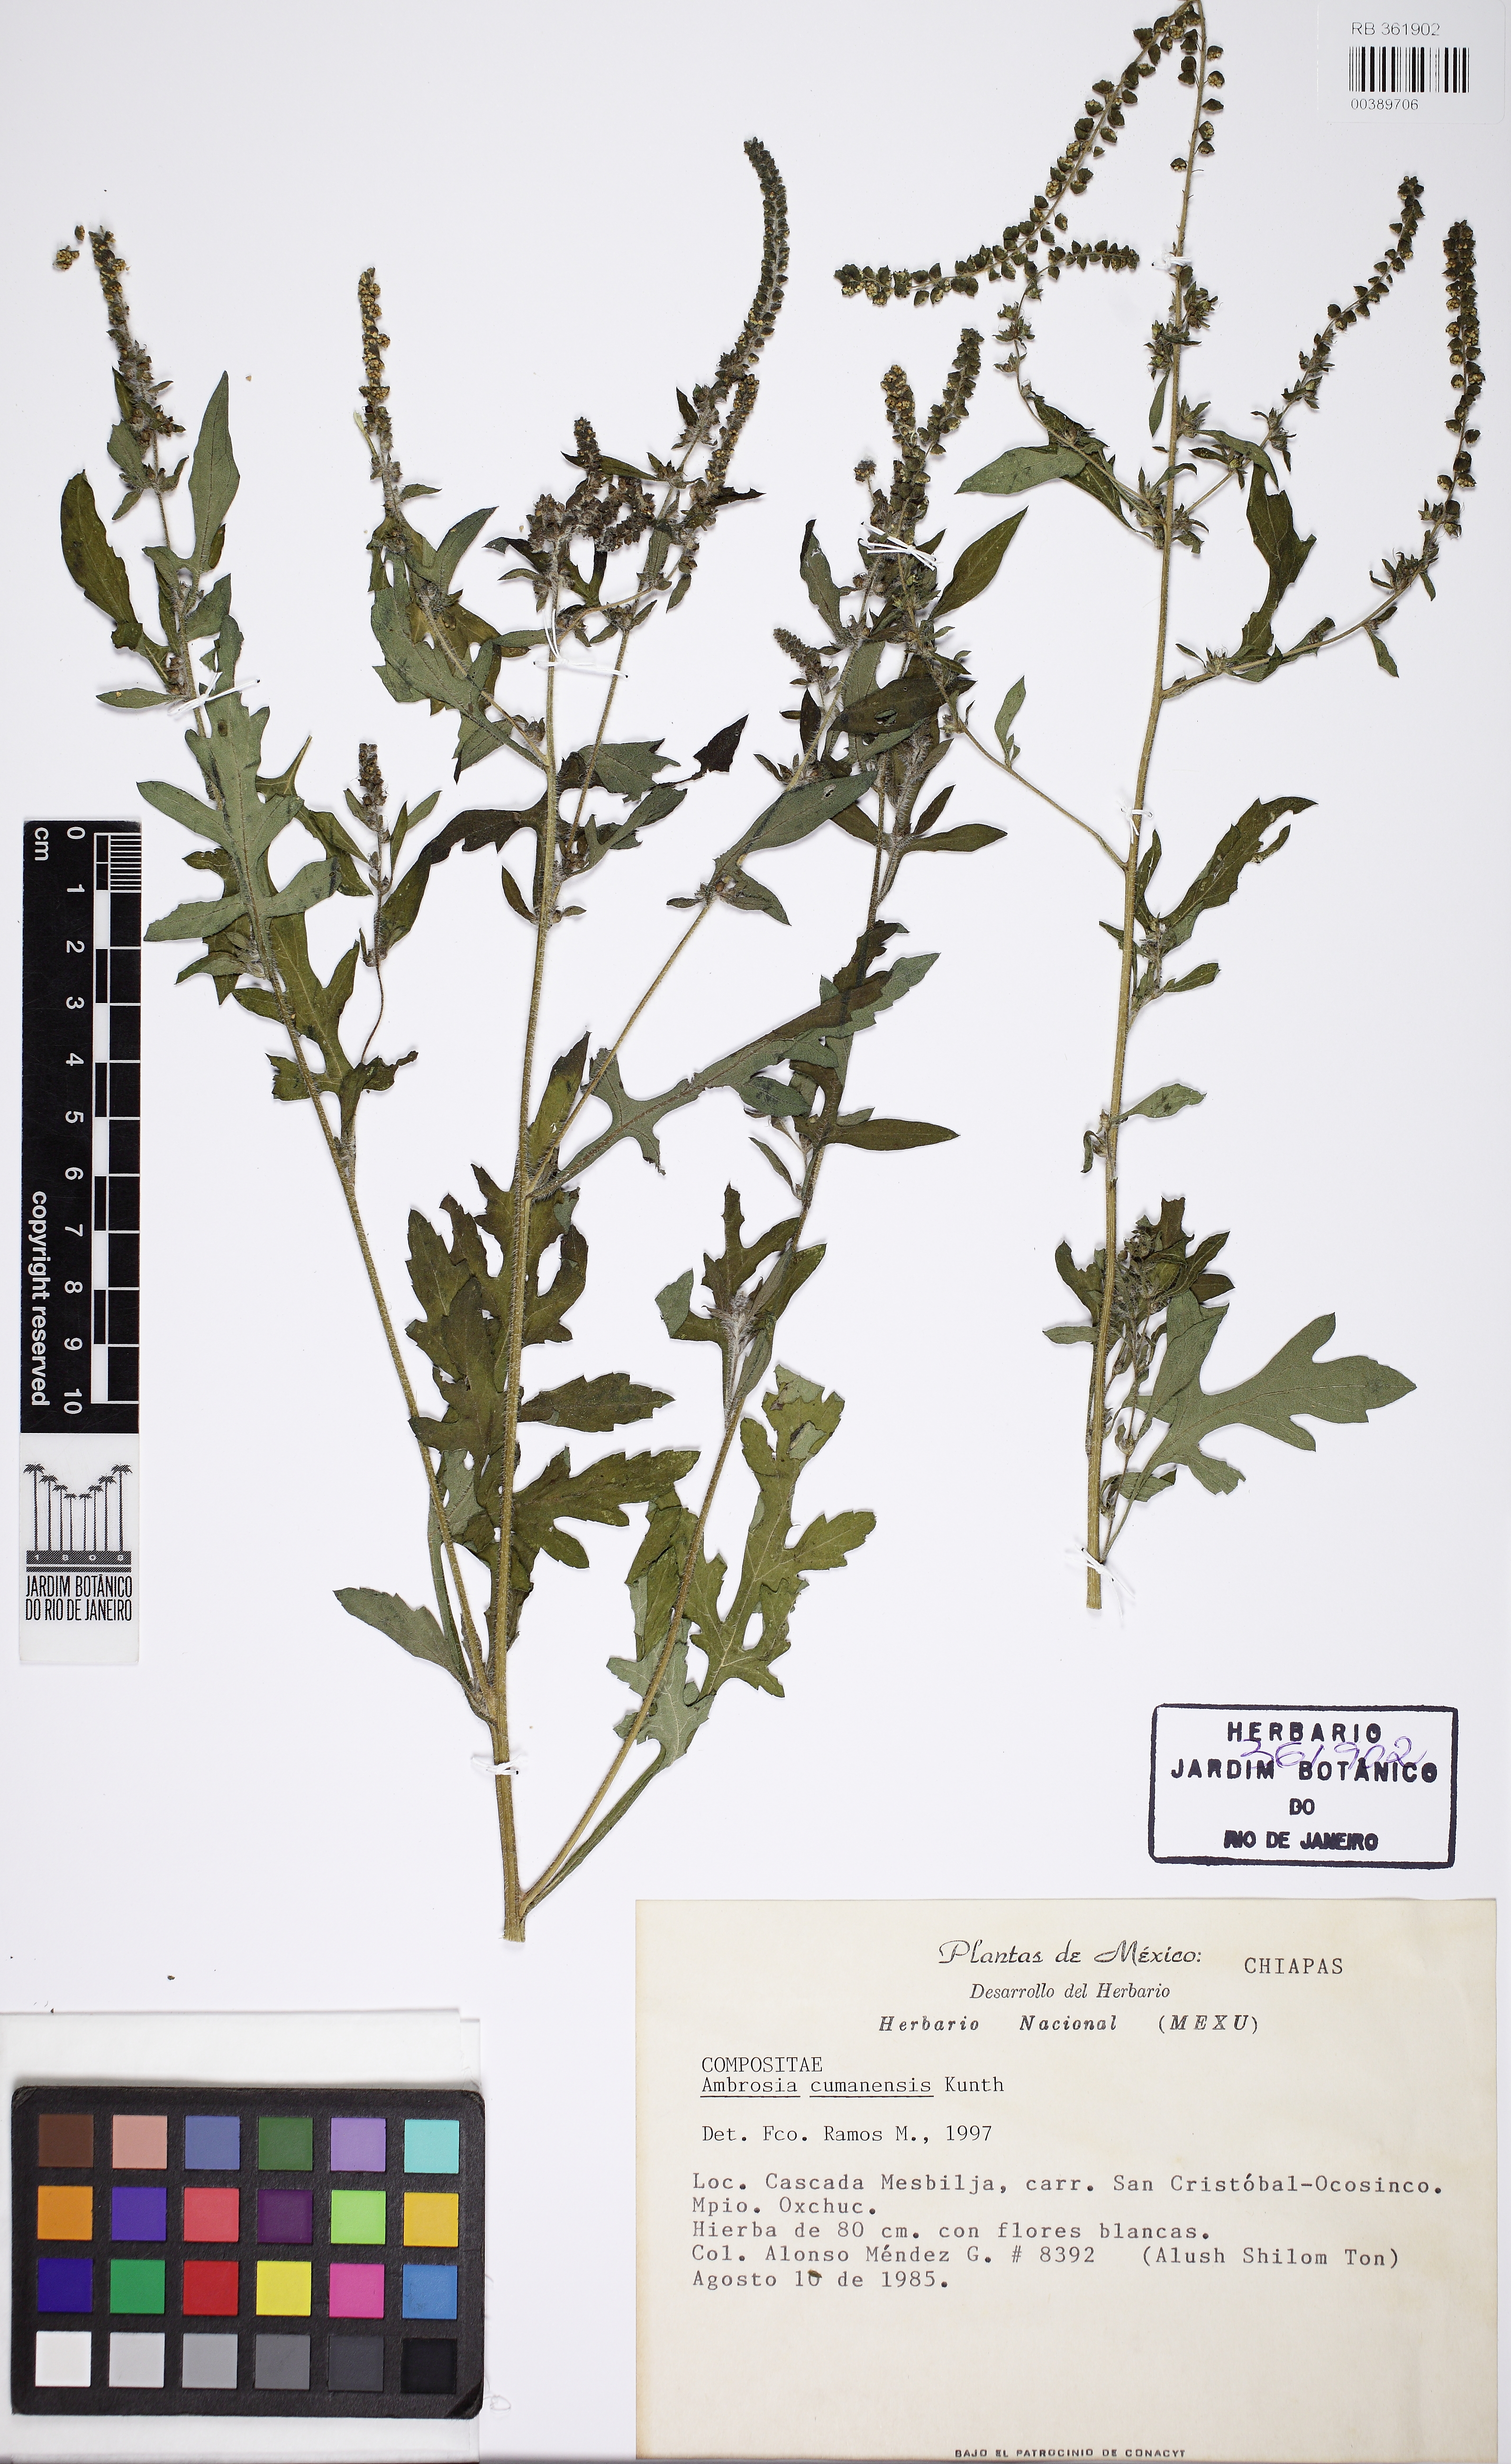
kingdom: Plantae
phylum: Tracheophyta
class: Magnoliopsida
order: Asterales
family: Asteraceae
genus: Ambrosia
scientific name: Ambrosia cumanensis
